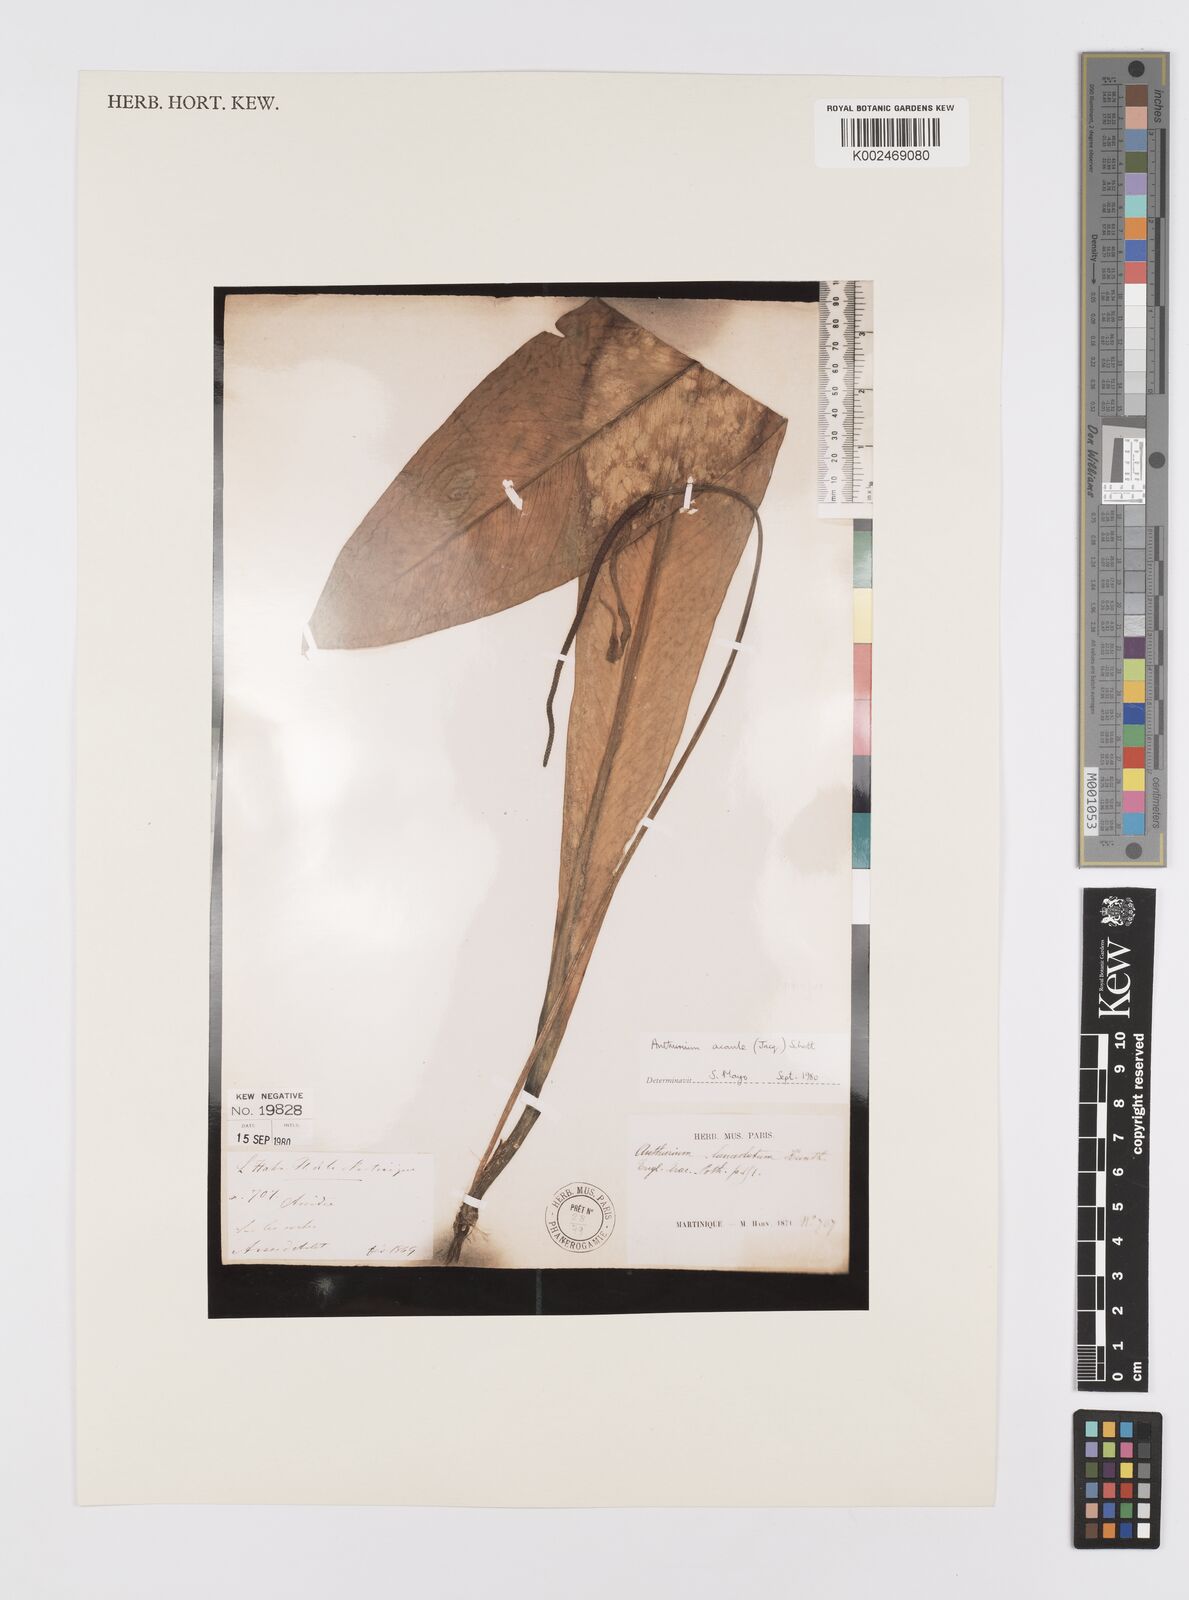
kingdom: Plantae
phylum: Tracheophyta
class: Liliopsida
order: Alismatales
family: Araceae
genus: Anthurium
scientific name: Anthurium acaule
